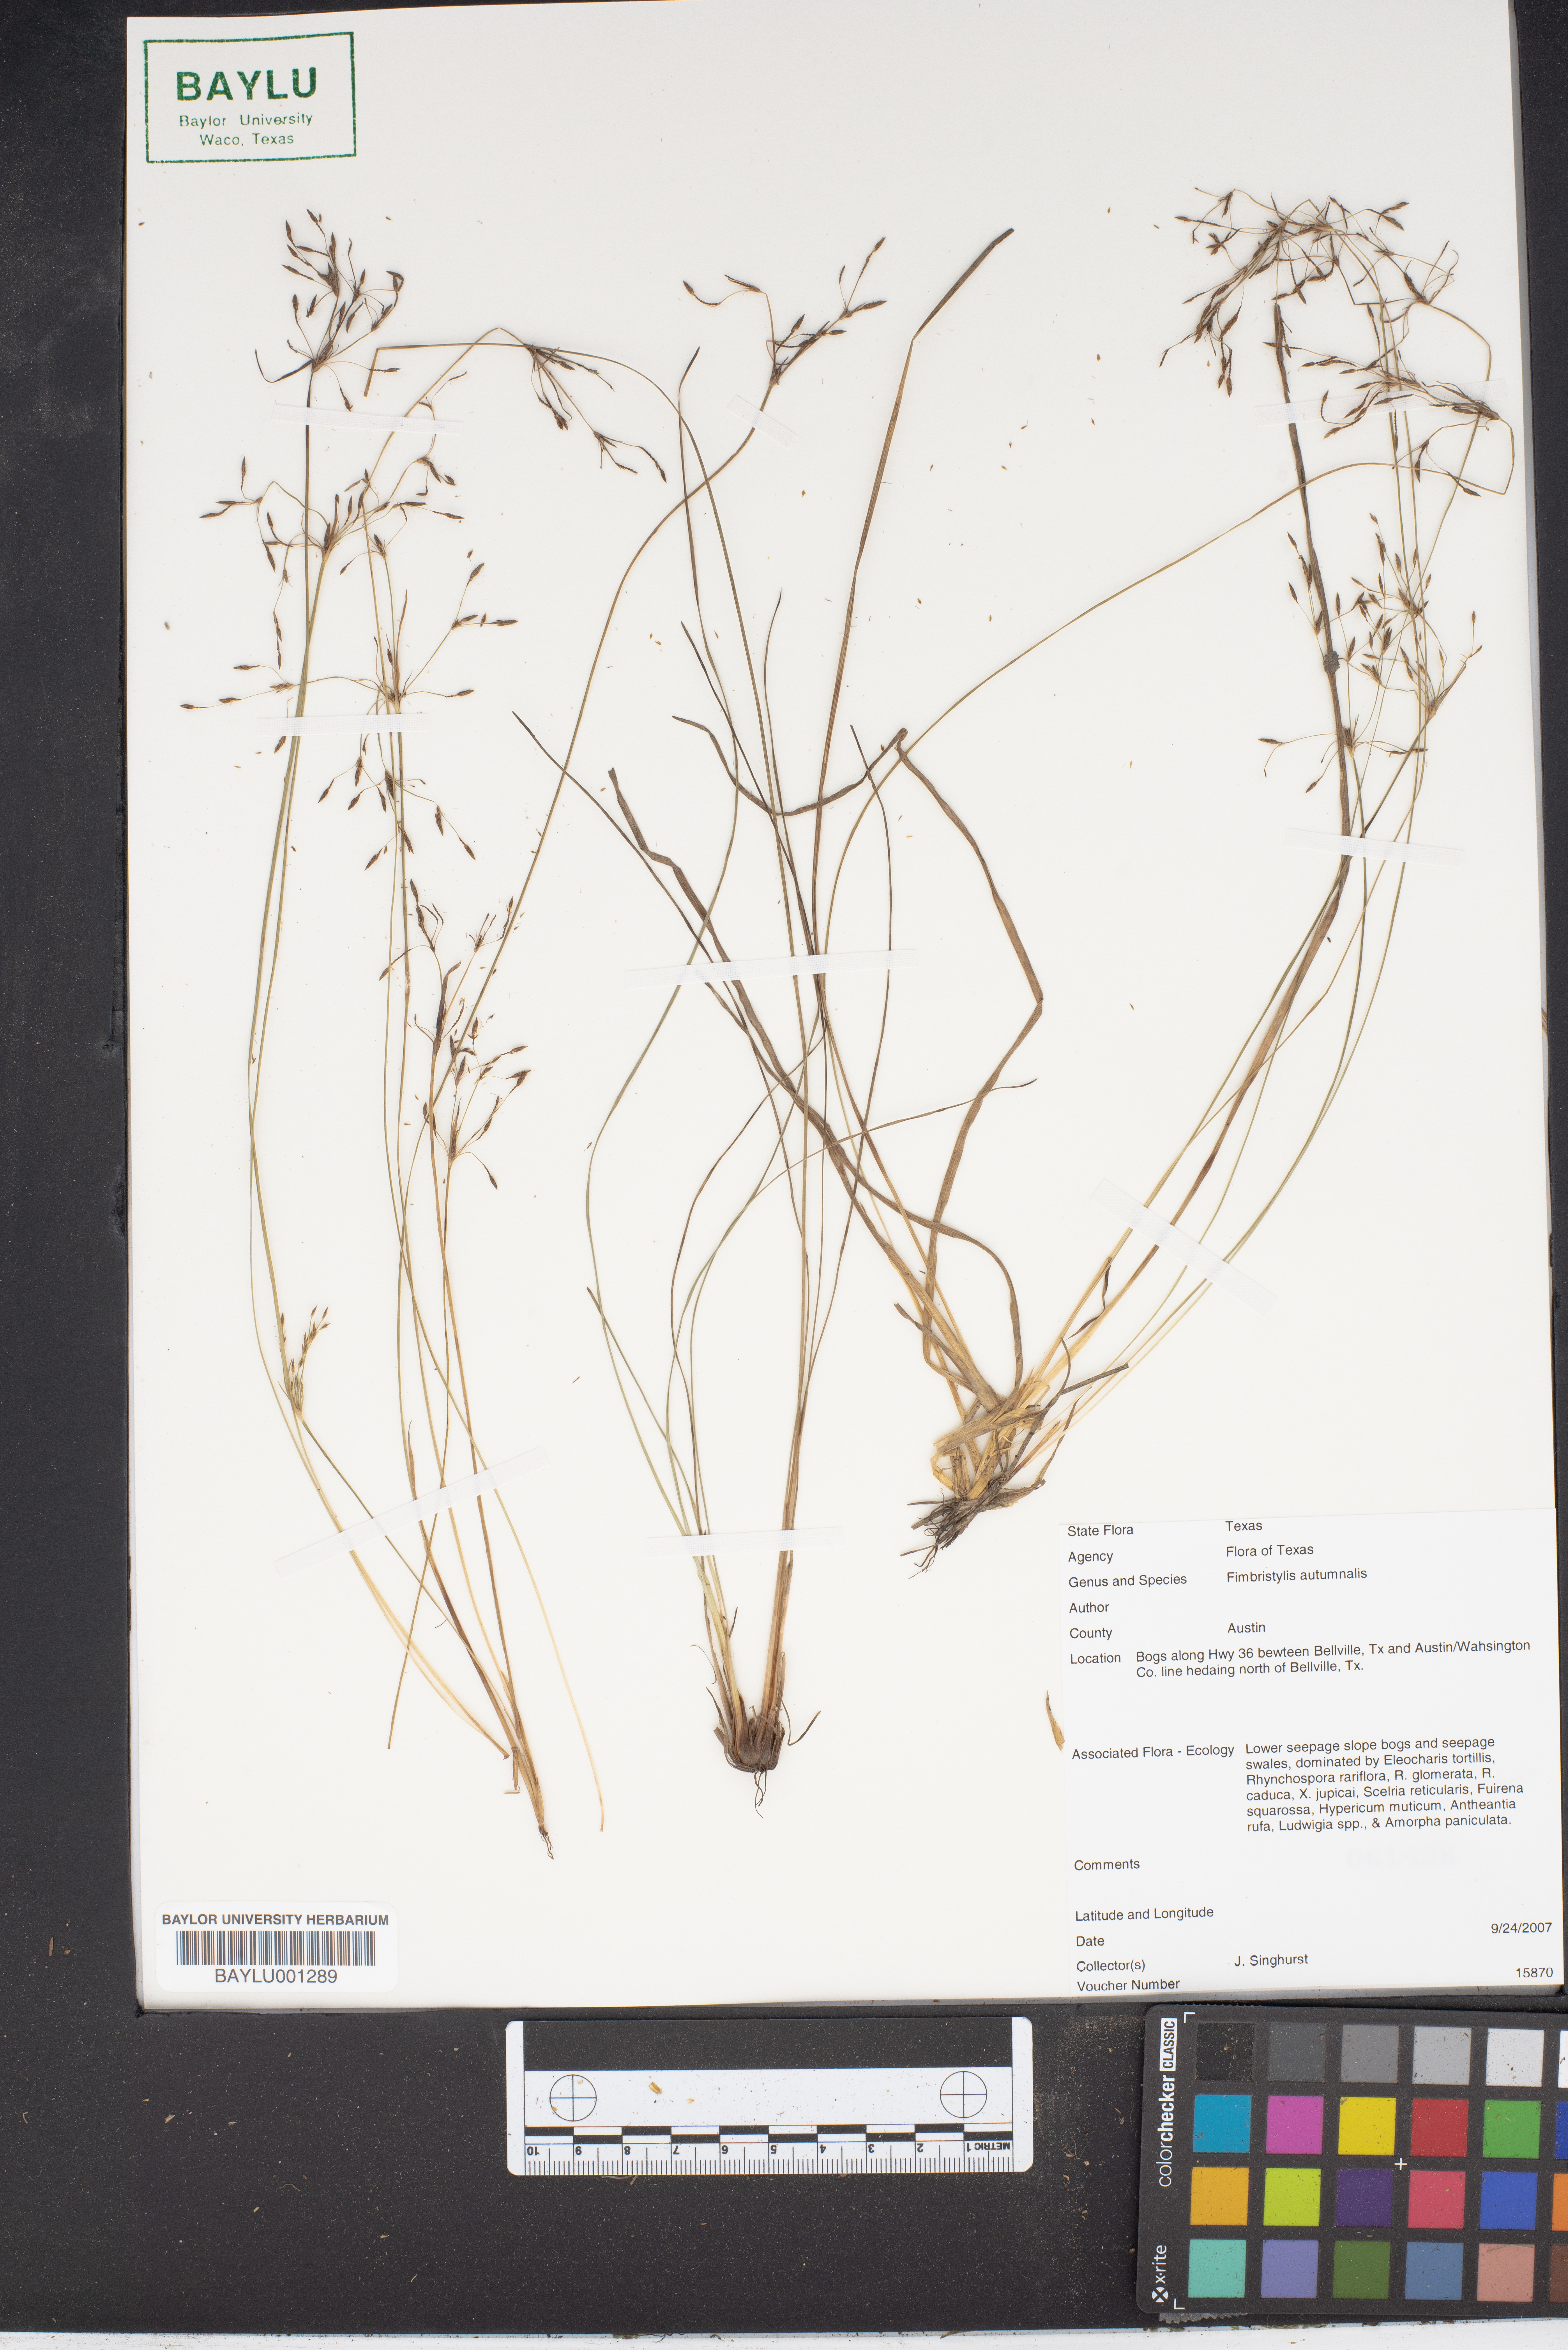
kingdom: Plantae
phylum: Tracheophyta
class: Liliopsida
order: Poales
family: Cyperaceae
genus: Fimbristylis
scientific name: Fimbristylis autumnalis
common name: Slender fimbristylis
